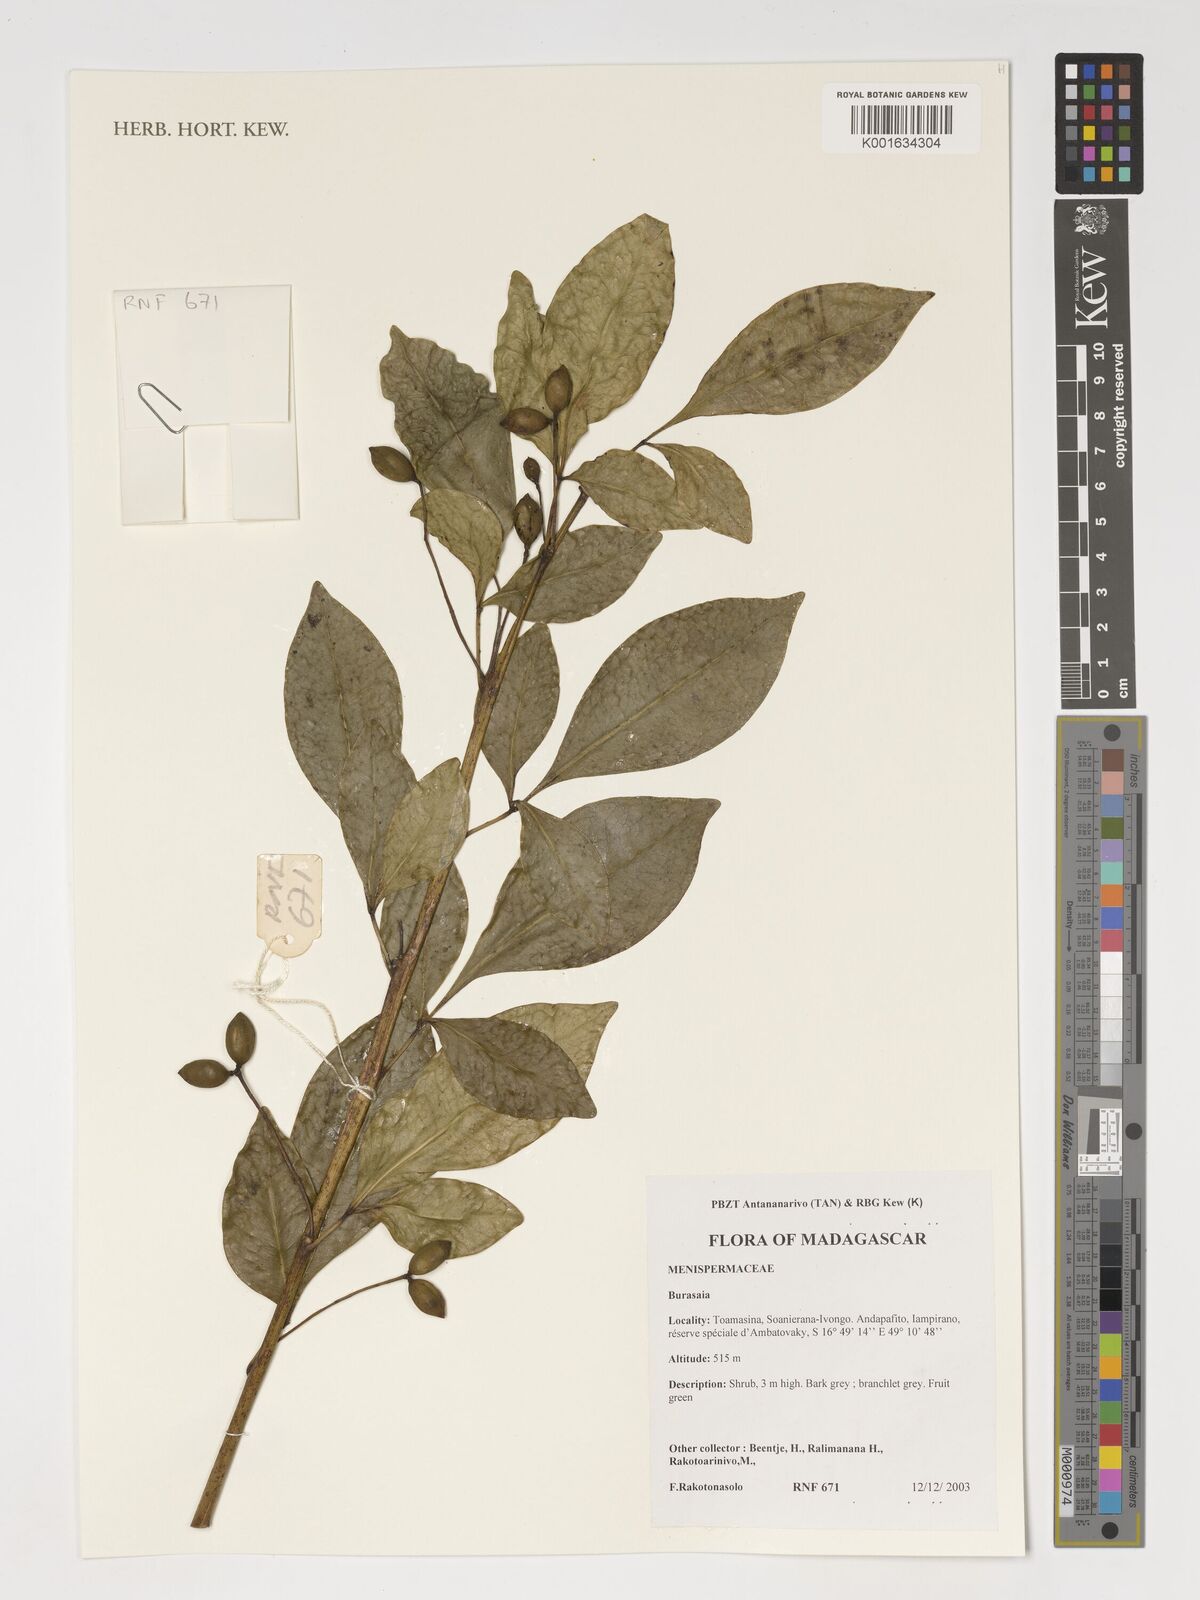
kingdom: Plantae
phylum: Tracheophyta
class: Magnoliopsida
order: Ranunculales
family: Menispermaceae
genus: Burasaia
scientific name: Burasaia
